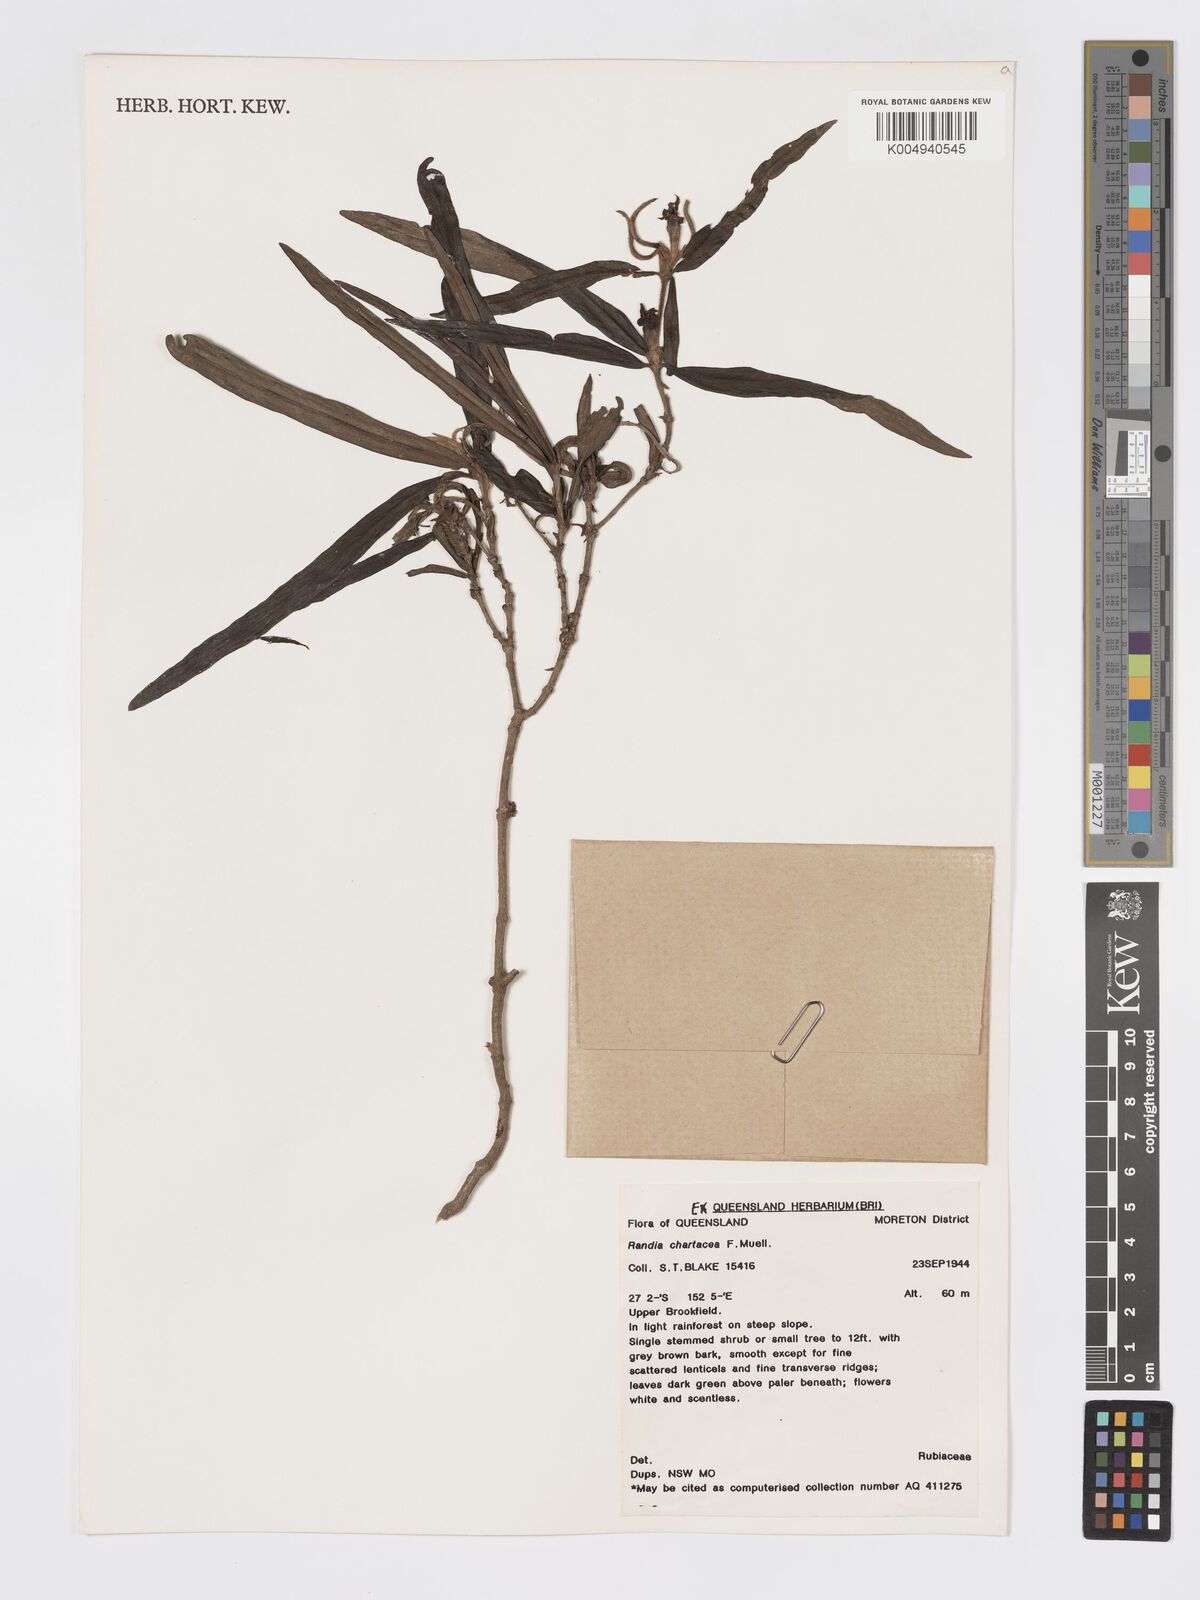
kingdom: Plantae
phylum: Tracheophyta
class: Magnoliopsida
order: Gentianales
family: Rubiaceae
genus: Atractocarpus
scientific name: Atractocarpus chartaceus
